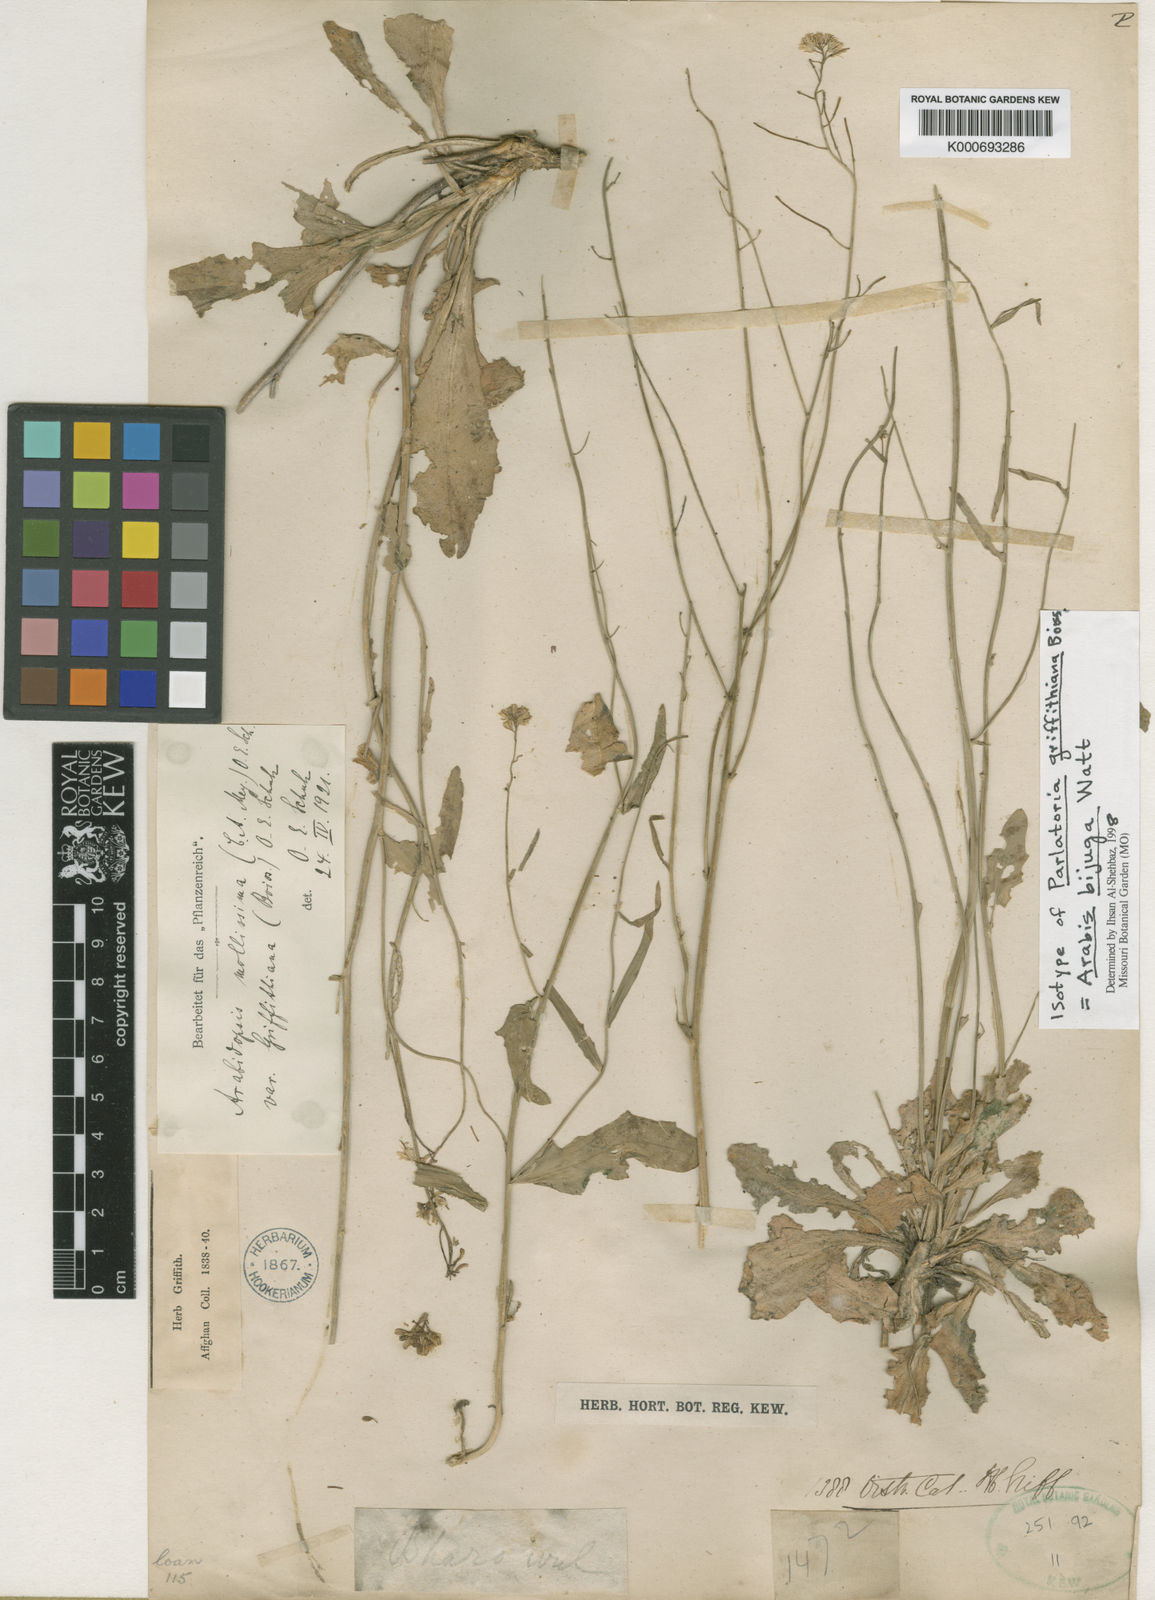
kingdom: Plantae
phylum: Tracheophyta
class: Magnoliopsida
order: Brassicales
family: Brassicaceae
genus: Arabis
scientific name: Arabis bijuga
